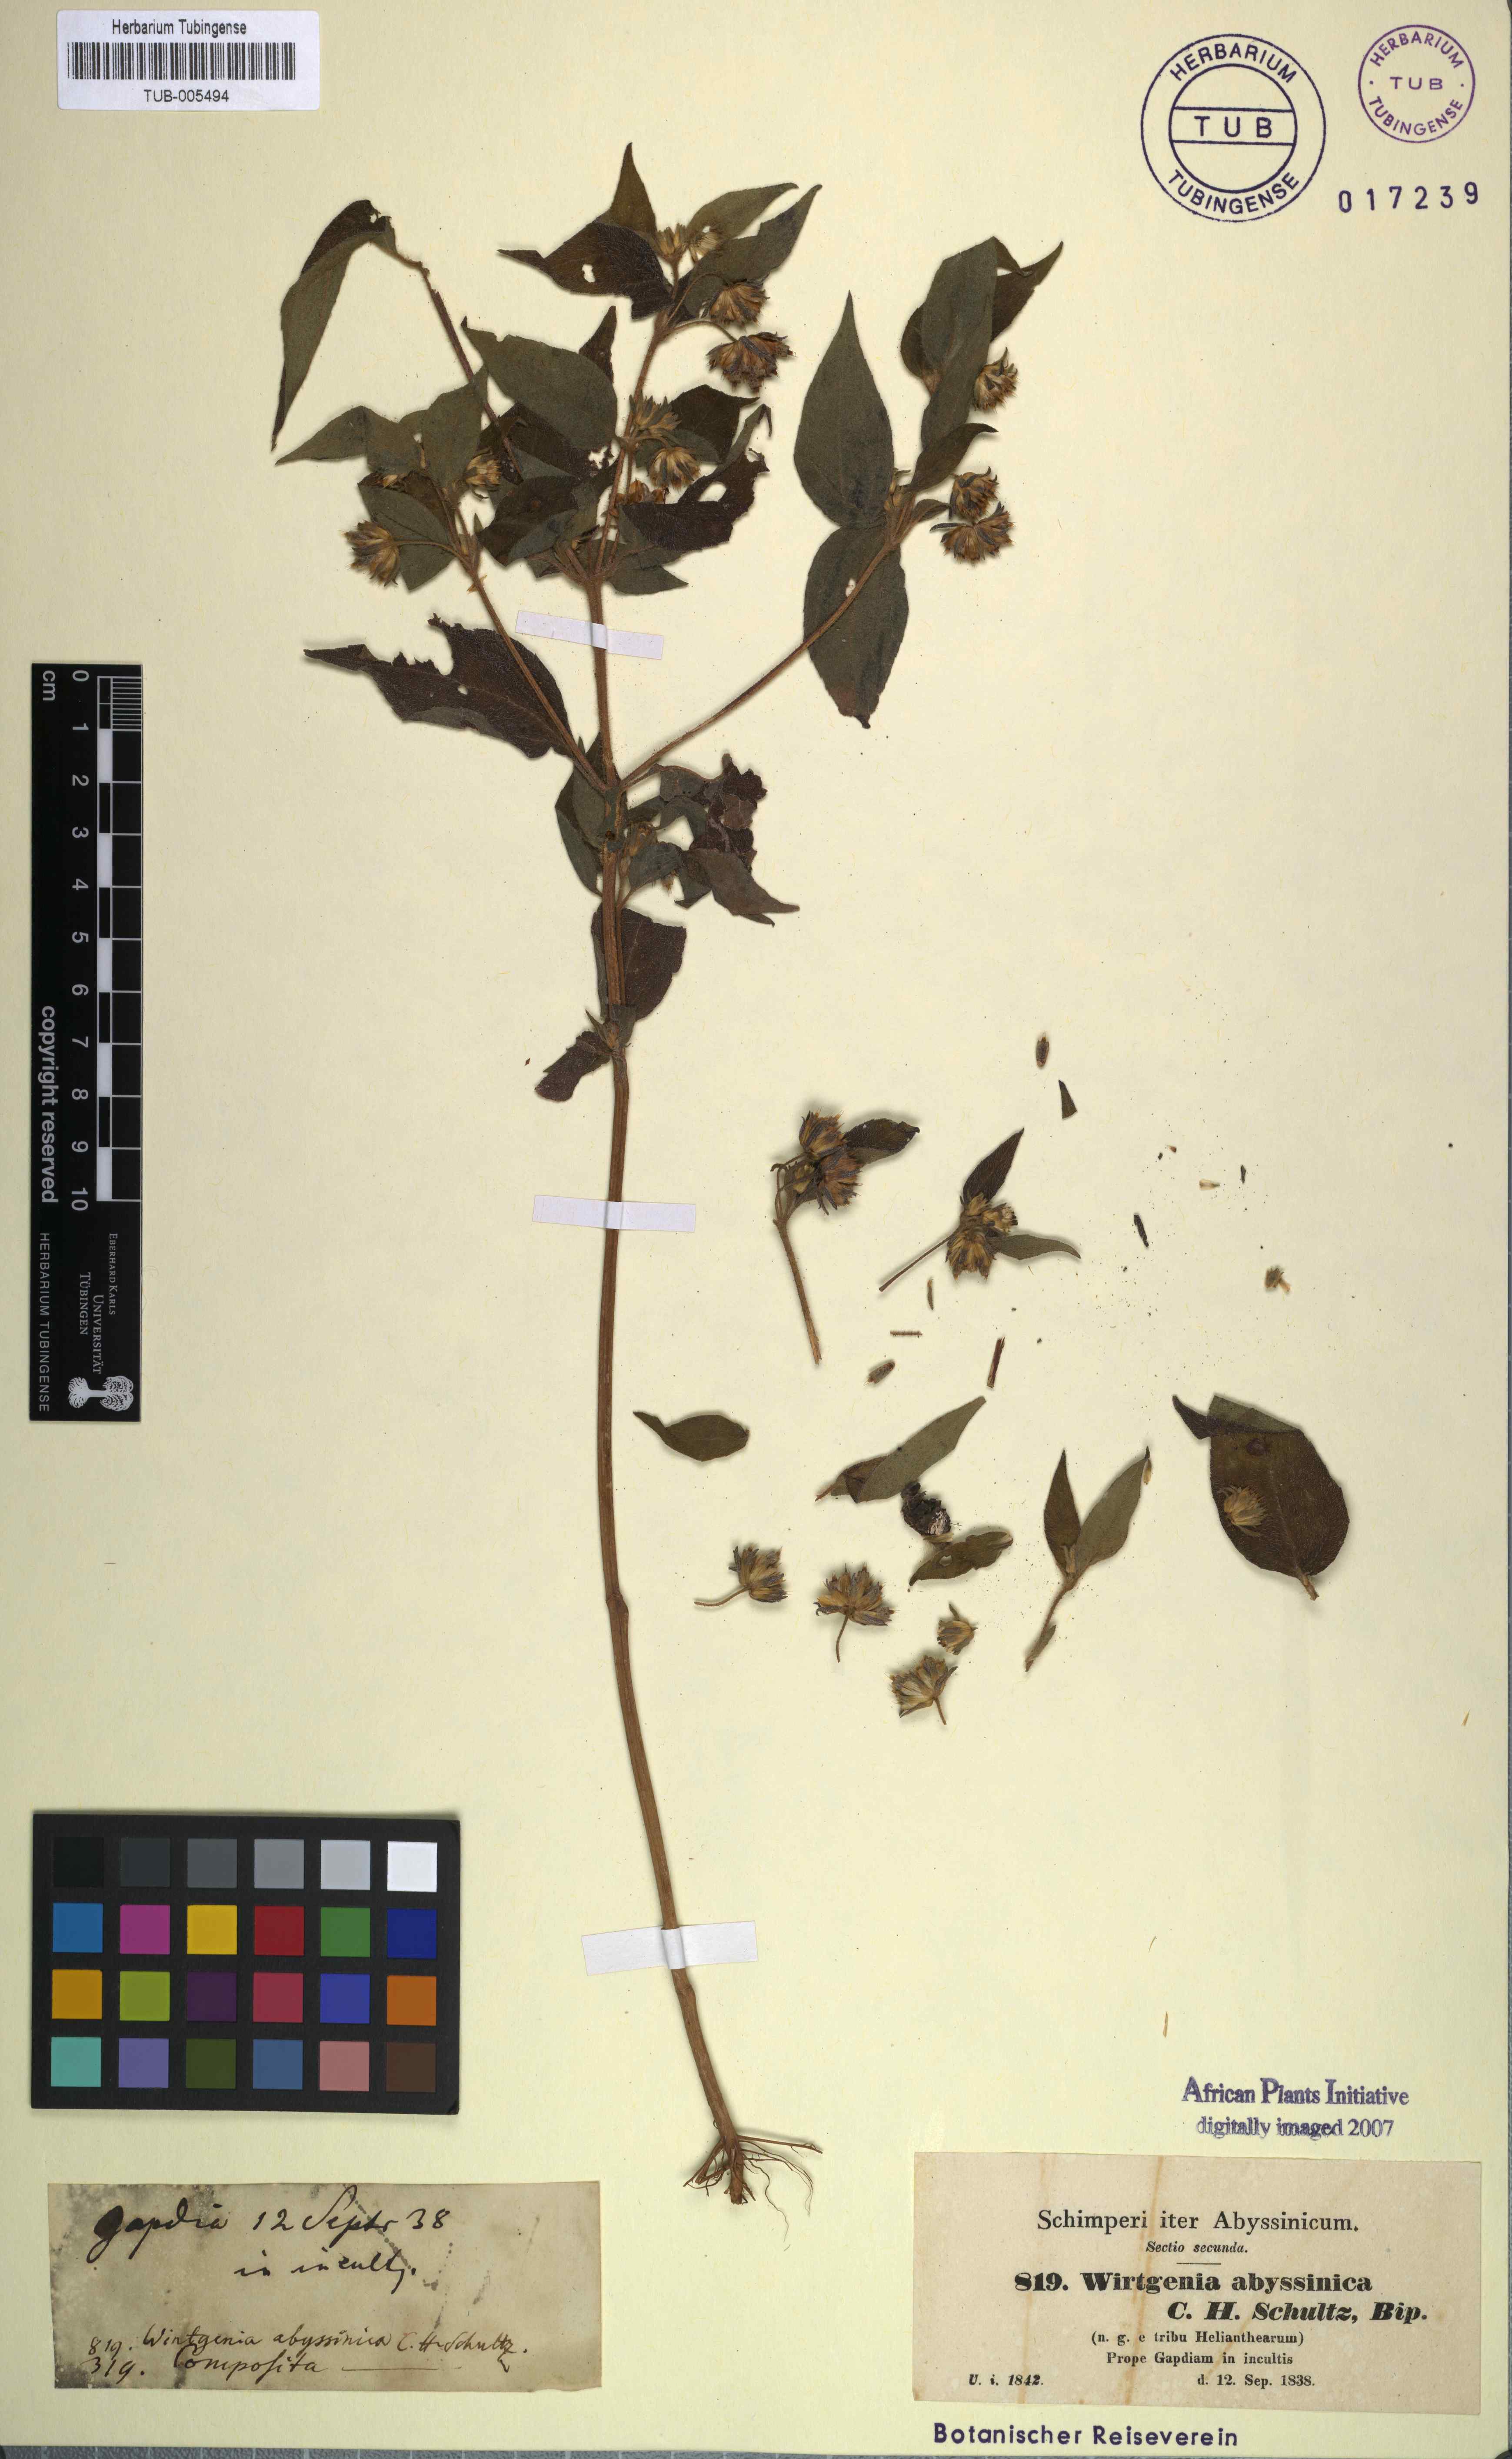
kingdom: Plantae
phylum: Tracheophyta
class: Magnoliopsida
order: Asterales
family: Asteraceae
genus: Aspilia
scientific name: Aspilia ciliata
